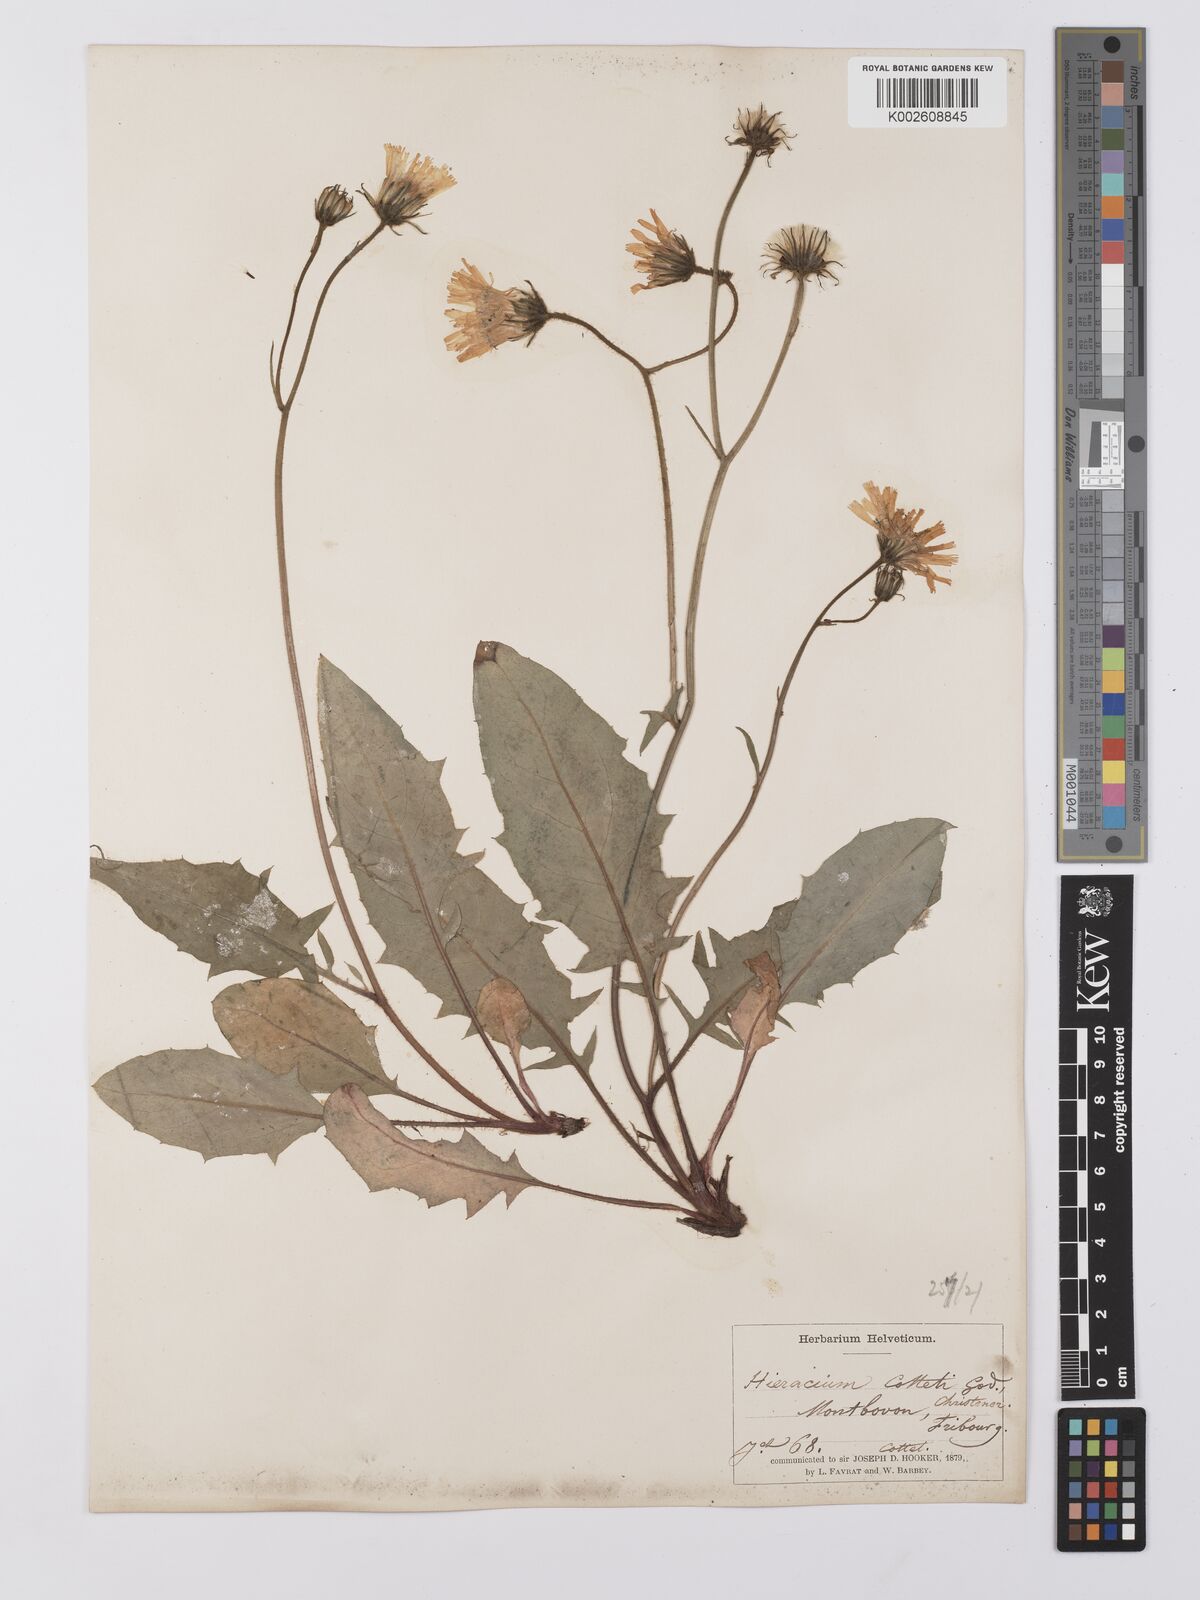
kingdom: Plantae
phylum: Tracheophyta
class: Magnoliopsida
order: Asterales
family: Asteraceae
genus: Hieracium
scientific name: Hieracium balbisianum
